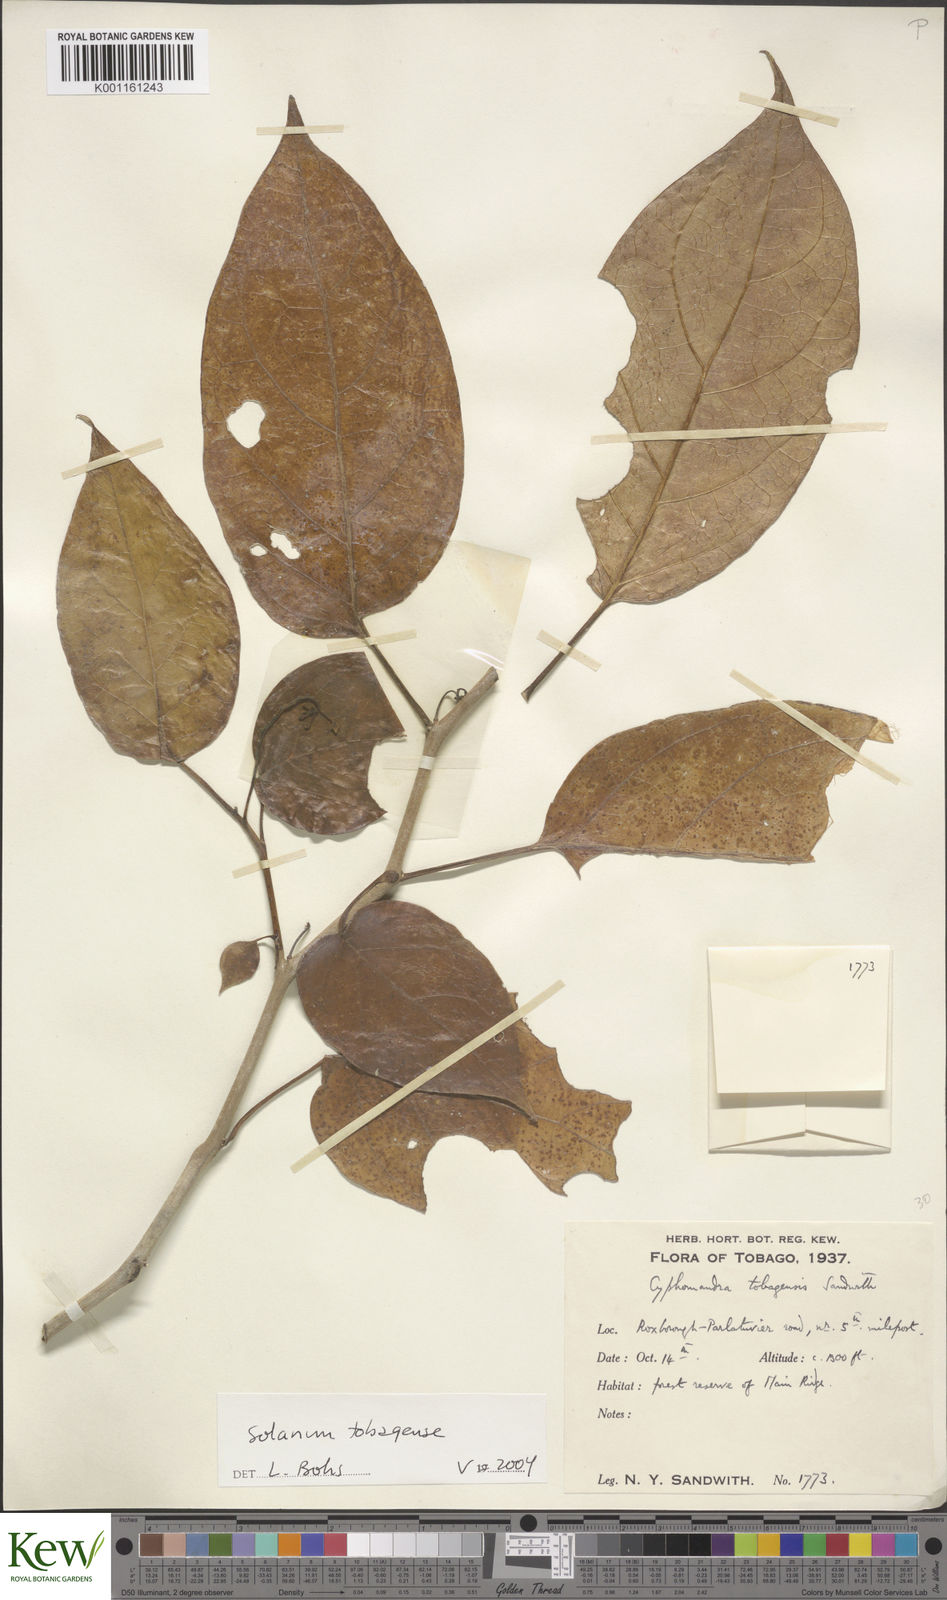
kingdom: Plantae
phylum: Tracheophyta
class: Magnoliopsida
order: Solanales
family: Solanaceae
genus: Solanum
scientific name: Solanum tobagense
